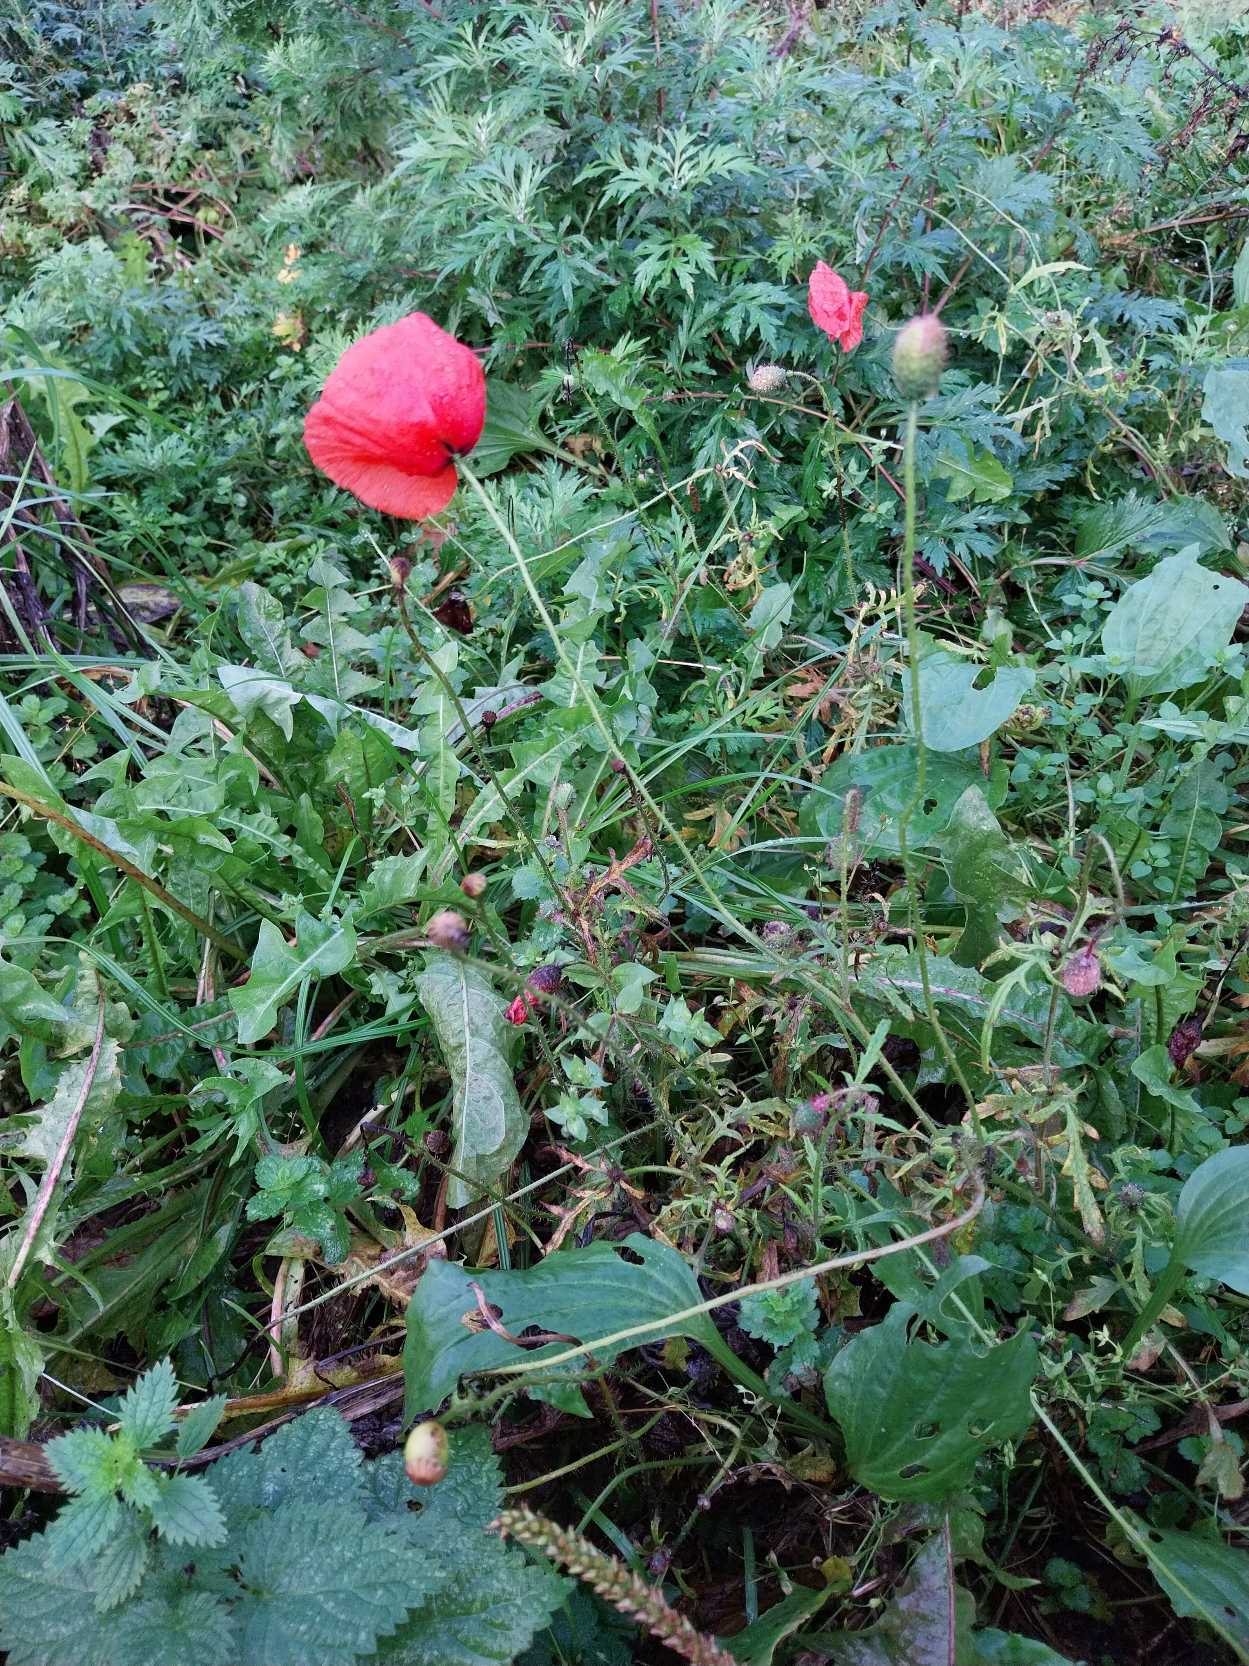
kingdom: Plantae
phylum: Tracheophyta
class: Magnoliopsida
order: Ranunculales
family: Papaveraceae
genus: Papaver
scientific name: Papaver rhoeas
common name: Korn-valmue
